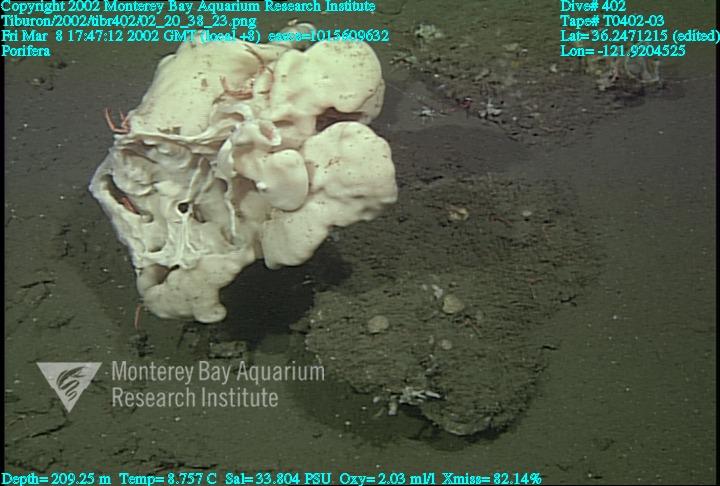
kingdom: Animalia
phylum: Porifera
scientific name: Porifera
